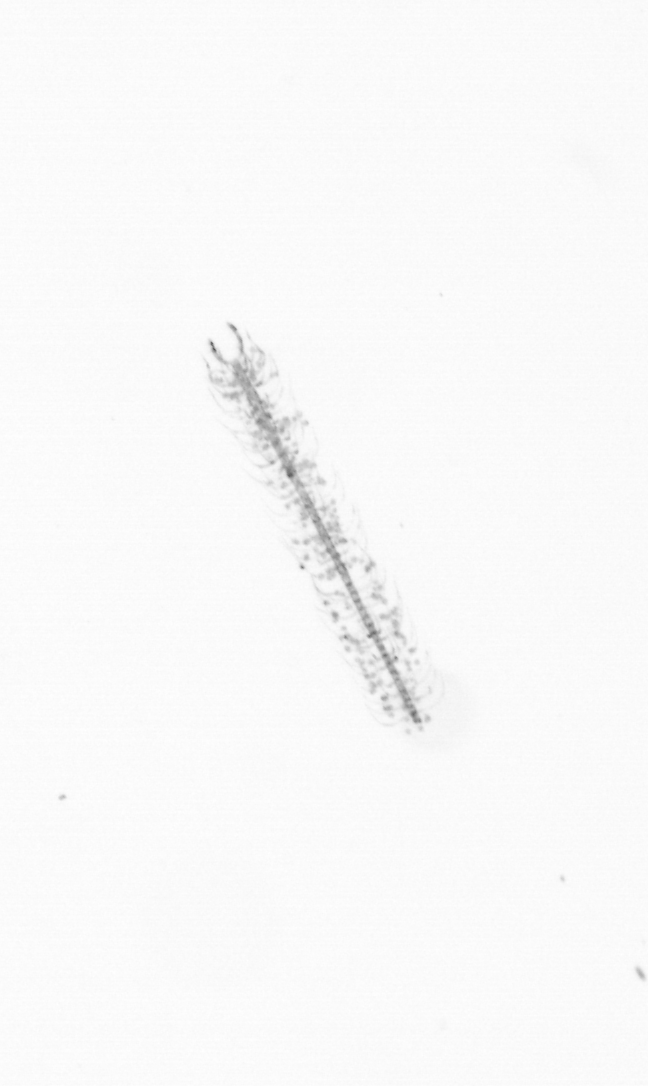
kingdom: Chromista
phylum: Ochrophyta
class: Bacillariophyceae
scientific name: Bacillariophyceae
